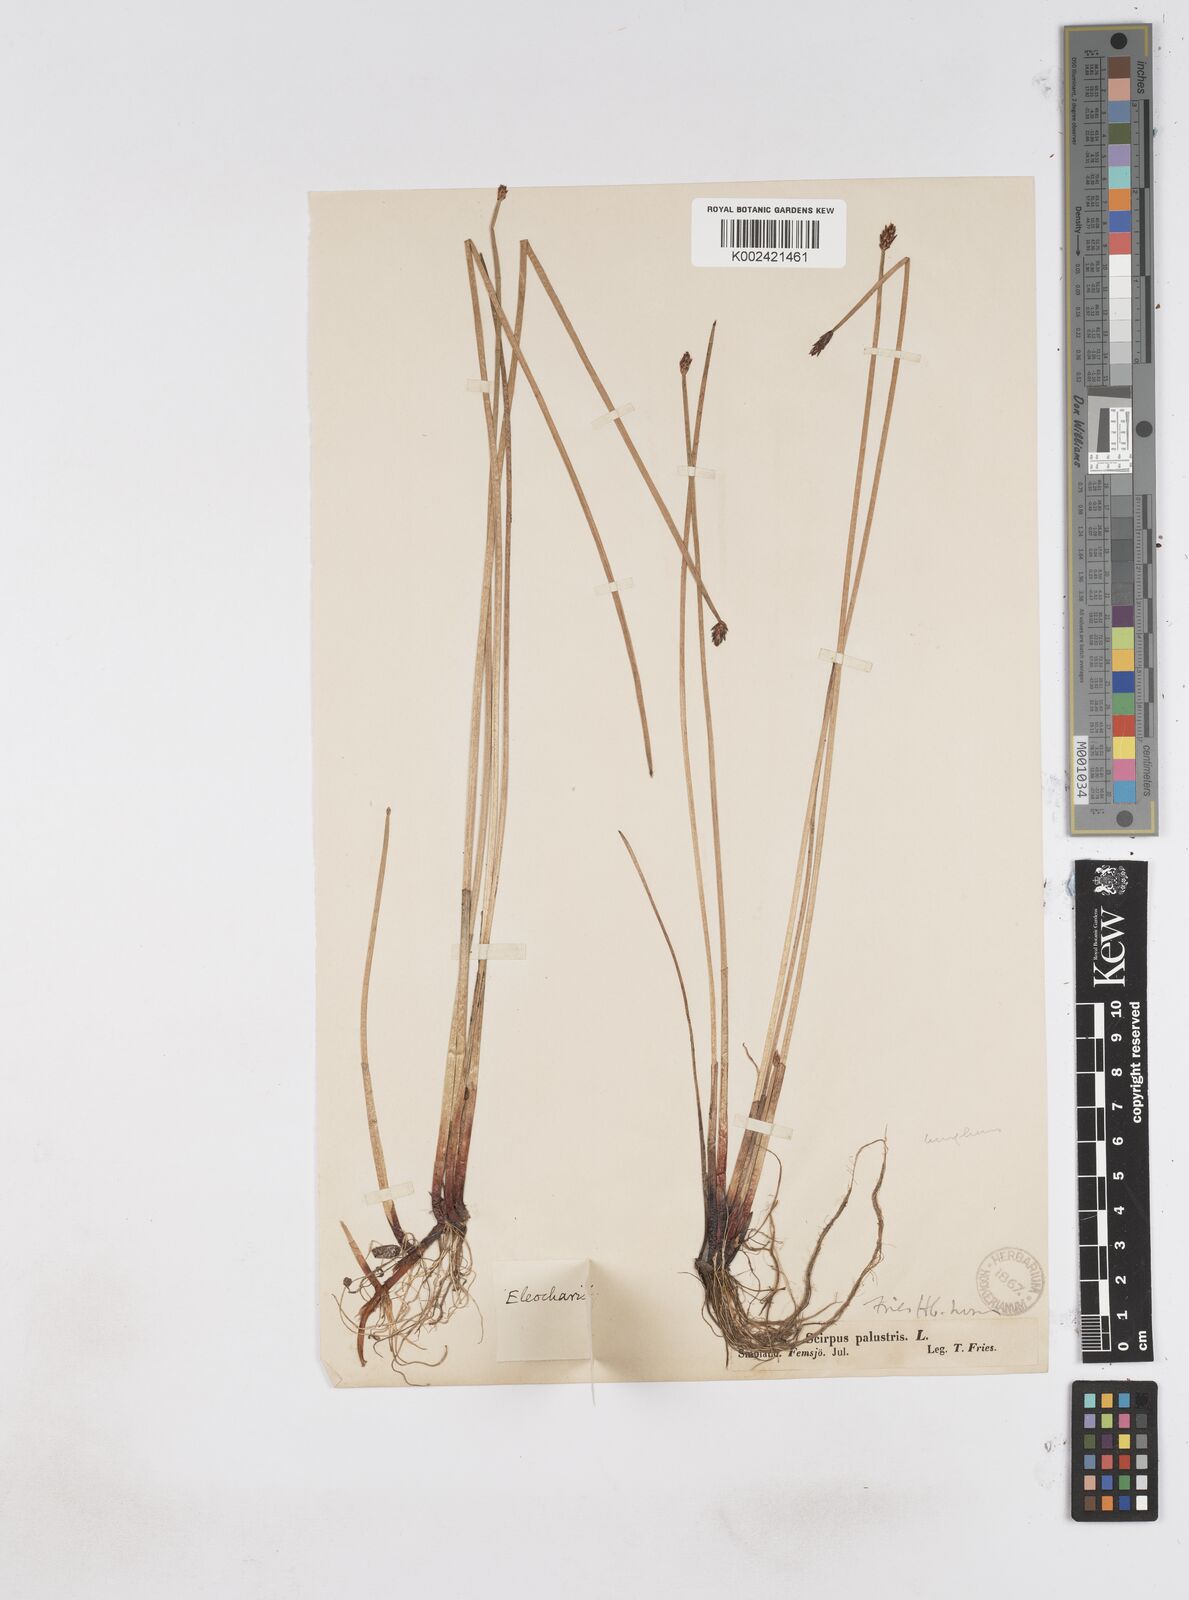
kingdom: Plantae
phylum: Tracheophyta
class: Liliopsida
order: Poales
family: Cyperaceae
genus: Eleocharis
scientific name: Eleocharis uniglumis
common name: Slender spike-rush
